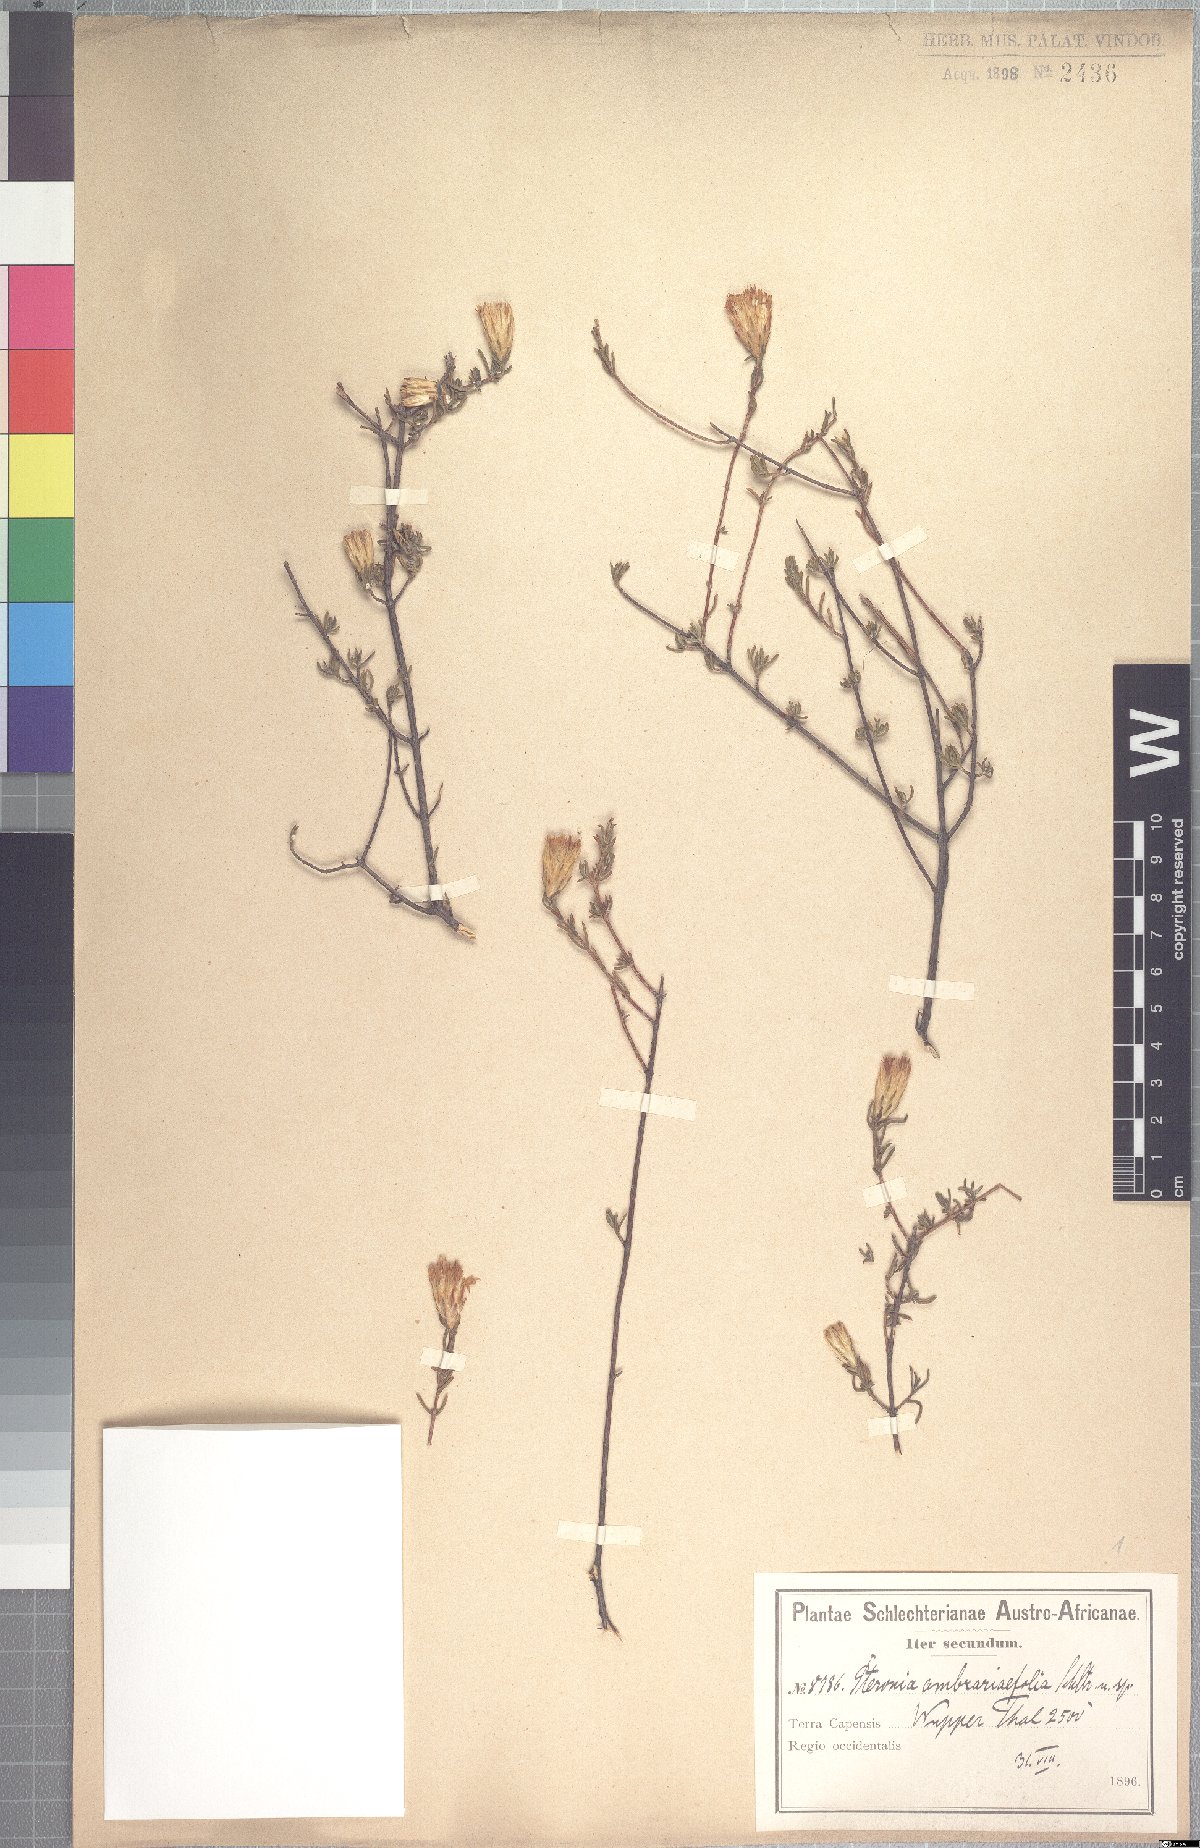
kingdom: Plantae
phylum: Tracheophyta
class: Magnoliopsida
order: Asterales
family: Asteraceae
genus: Pteronia
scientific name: Pteronia ambrariifolia
